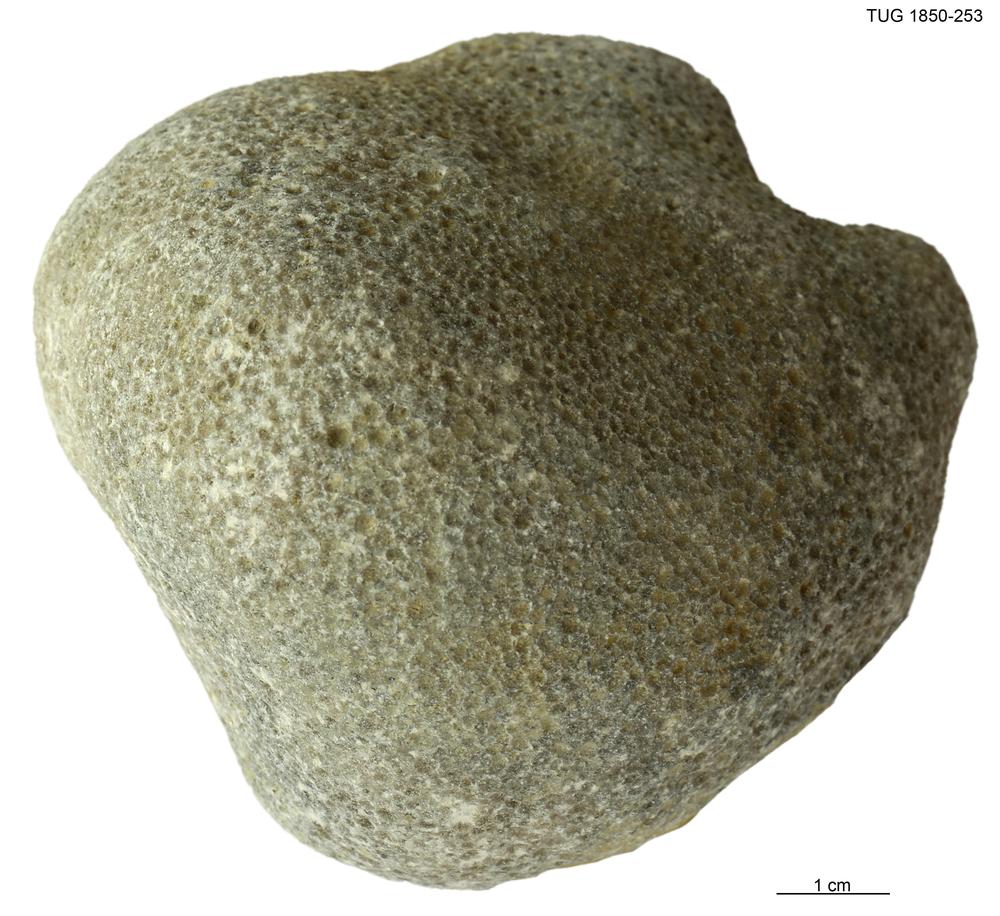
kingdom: Animalia
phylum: Cnidaria
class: Anthozoa
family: Favositidae
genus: Favosites
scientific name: Favosites
